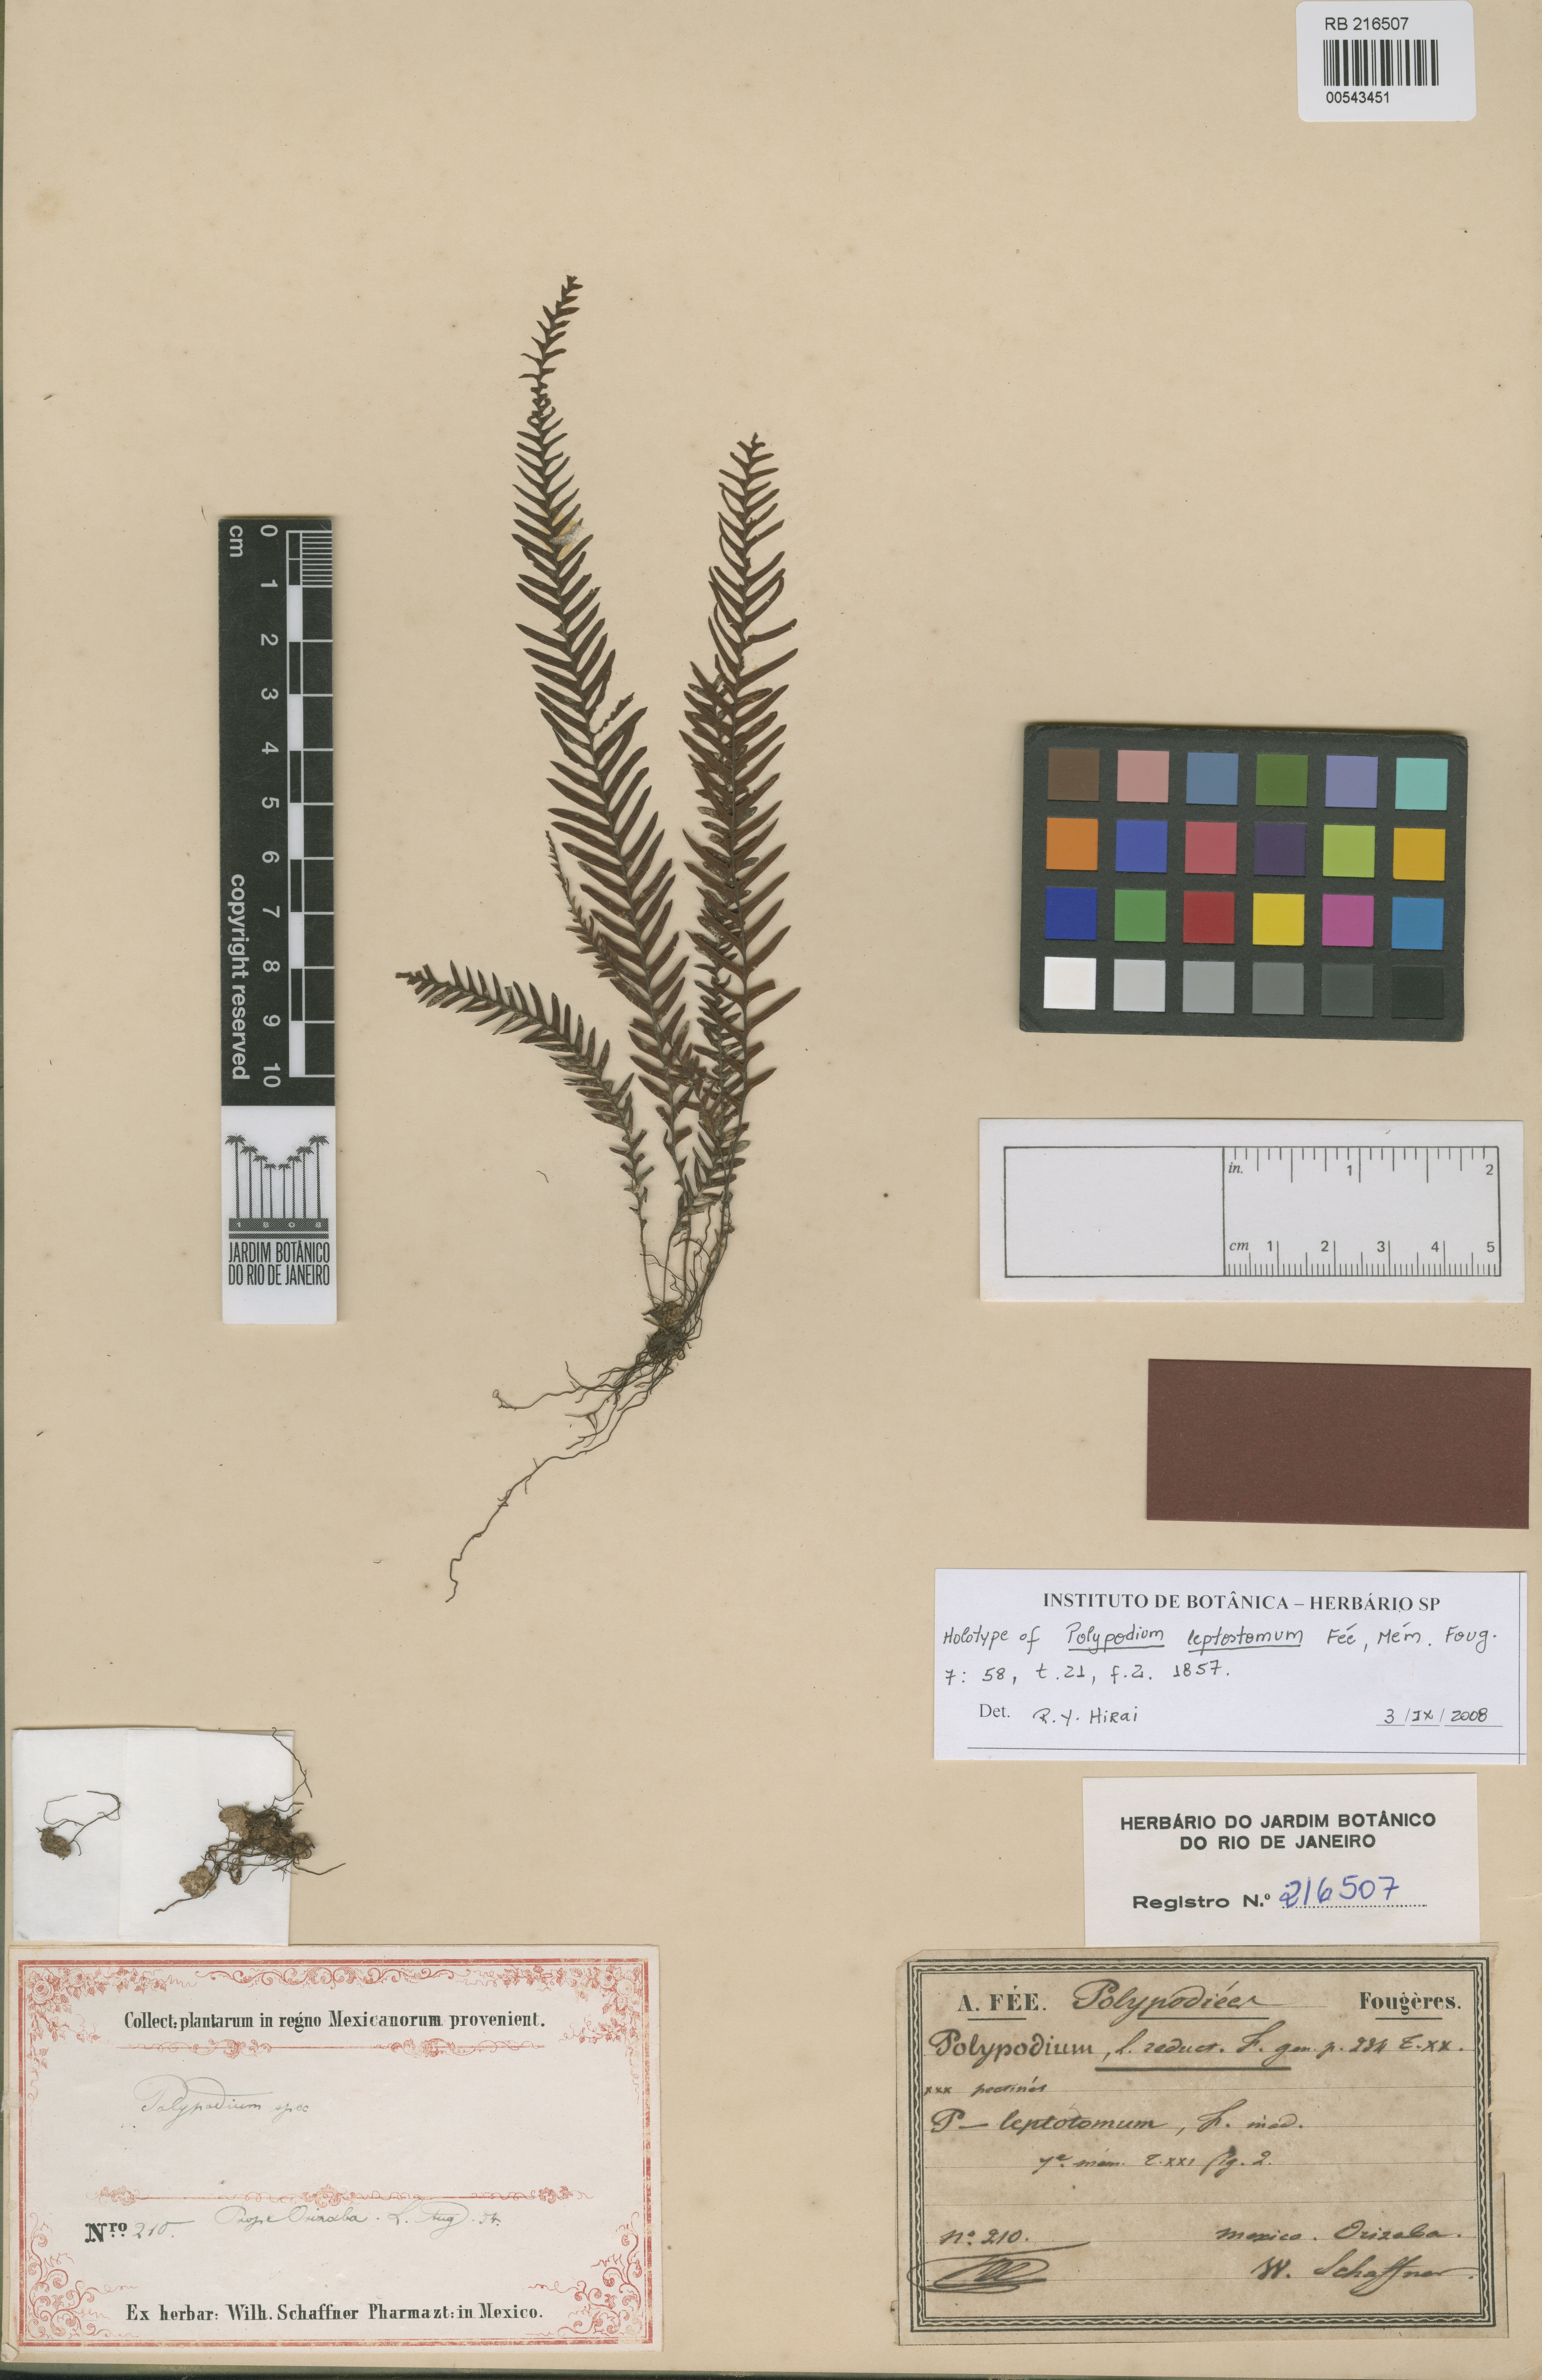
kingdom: Plantae
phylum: Tracheophyta
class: Polypodiopsida
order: Polypodiales
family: Polypodiaceae
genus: Melpomene
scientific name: Melpomene leptostoma
